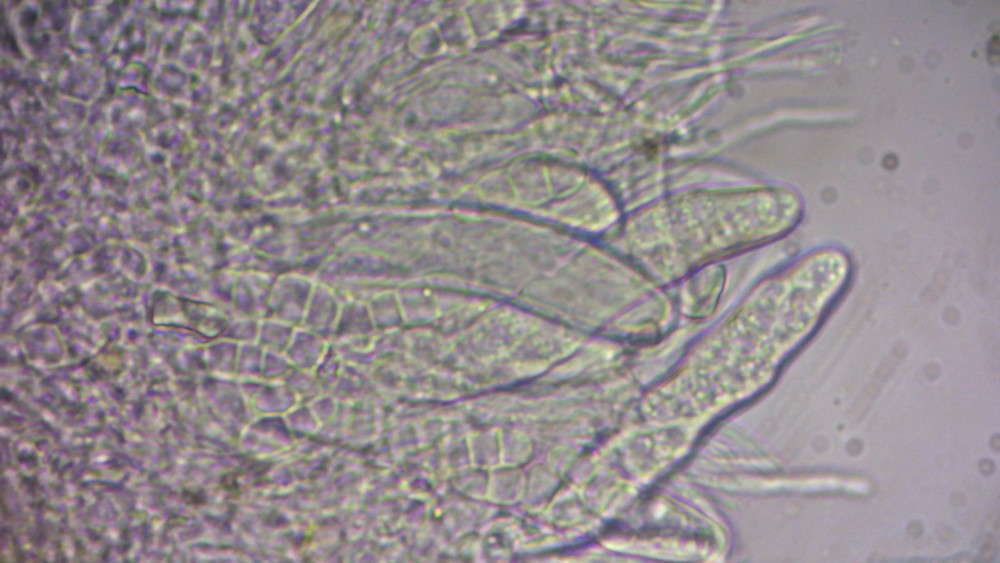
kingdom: Fungi
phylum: Ascomycota
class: Sordariomycetes
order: Xylariales
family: Hyponectriaceae
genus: Exarmidium
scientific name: Exarmidium inclusum
